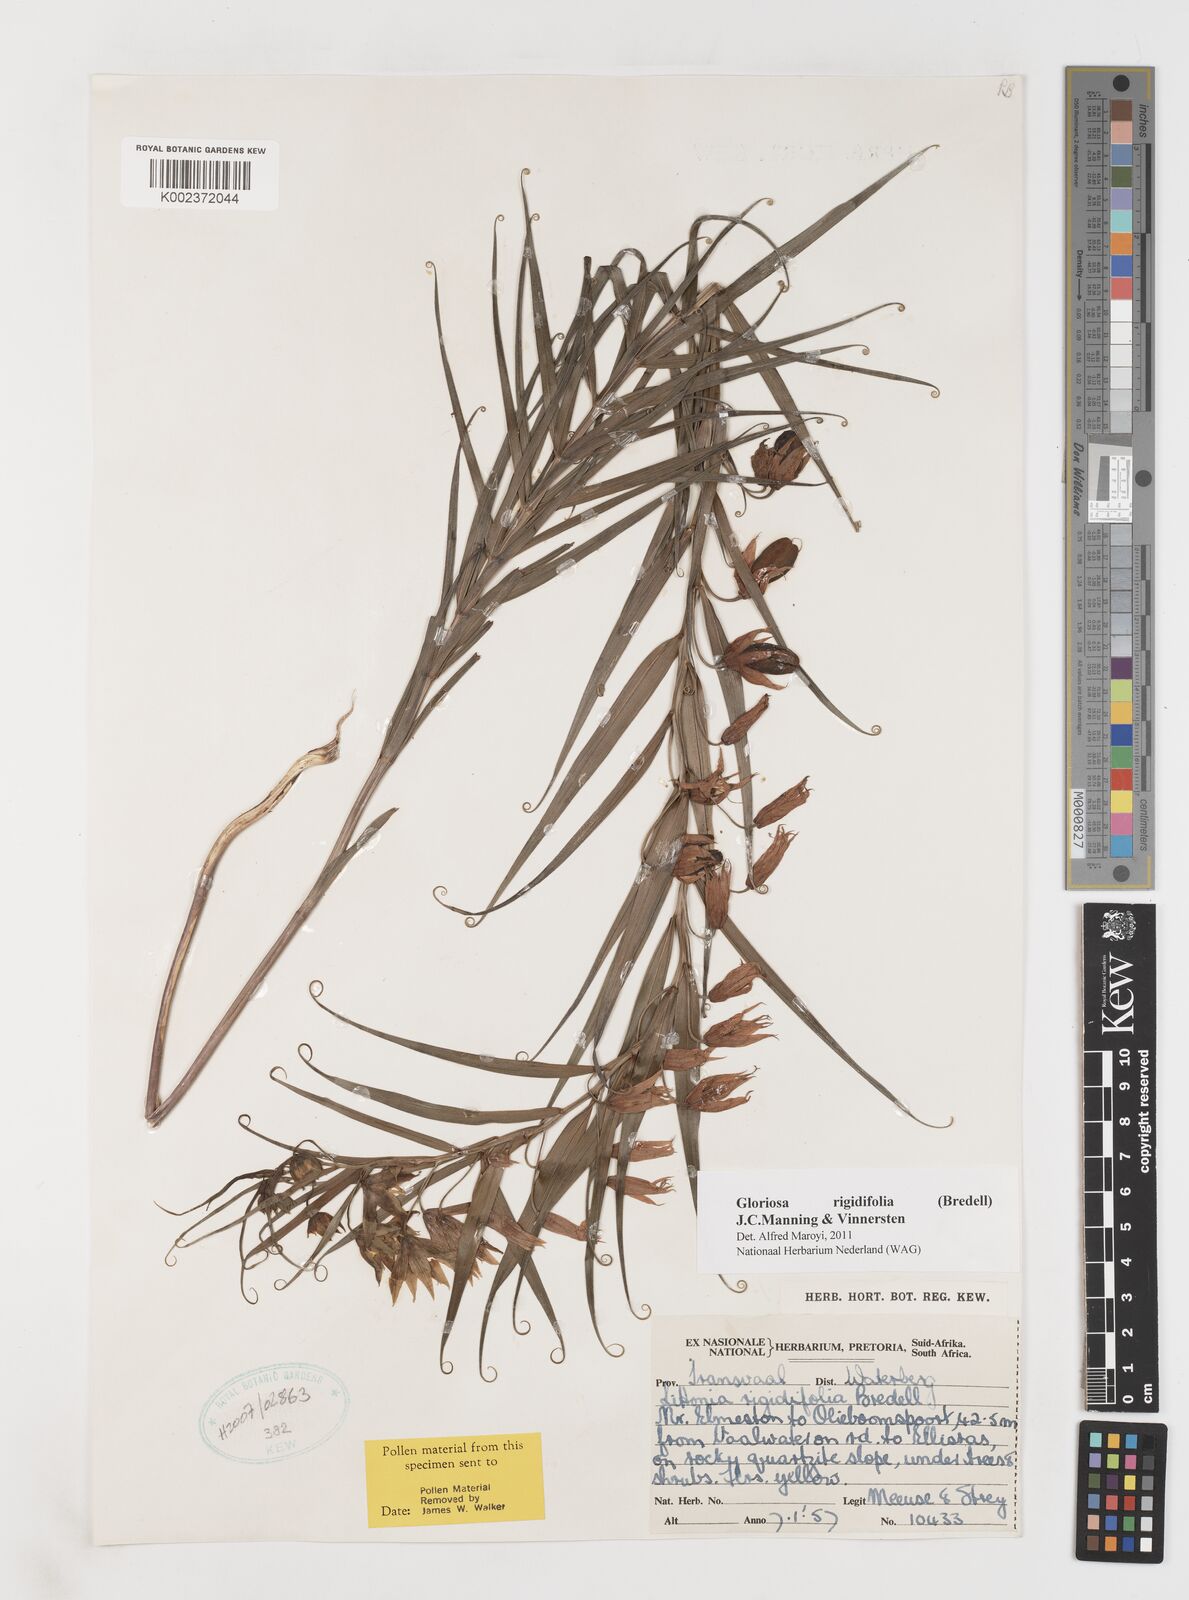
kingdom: Plantae
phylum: Tracheophyta
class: Liliopsida
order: Liliales
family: Colchicaceae
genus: Gloriosa
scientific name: Gloriosa rigidifolia
